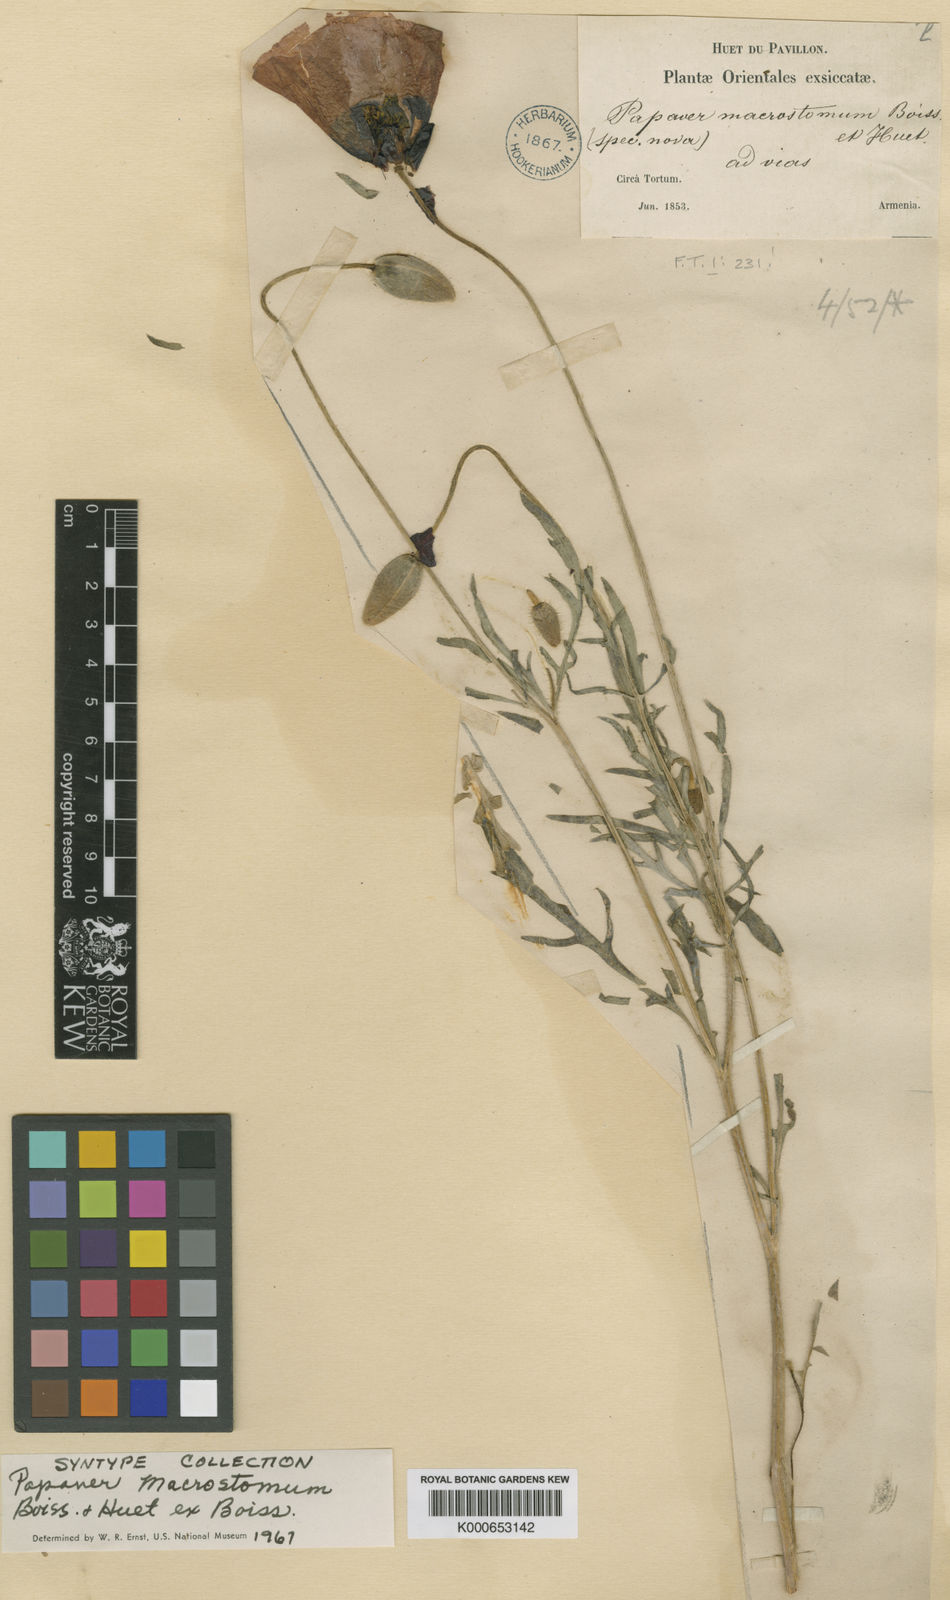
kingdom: Plantae
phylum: Tracheophyta
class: Magnoliopsida
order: Ranunculales
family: Papaveraceae
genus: Papaver
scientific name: Papaver macrostomum
